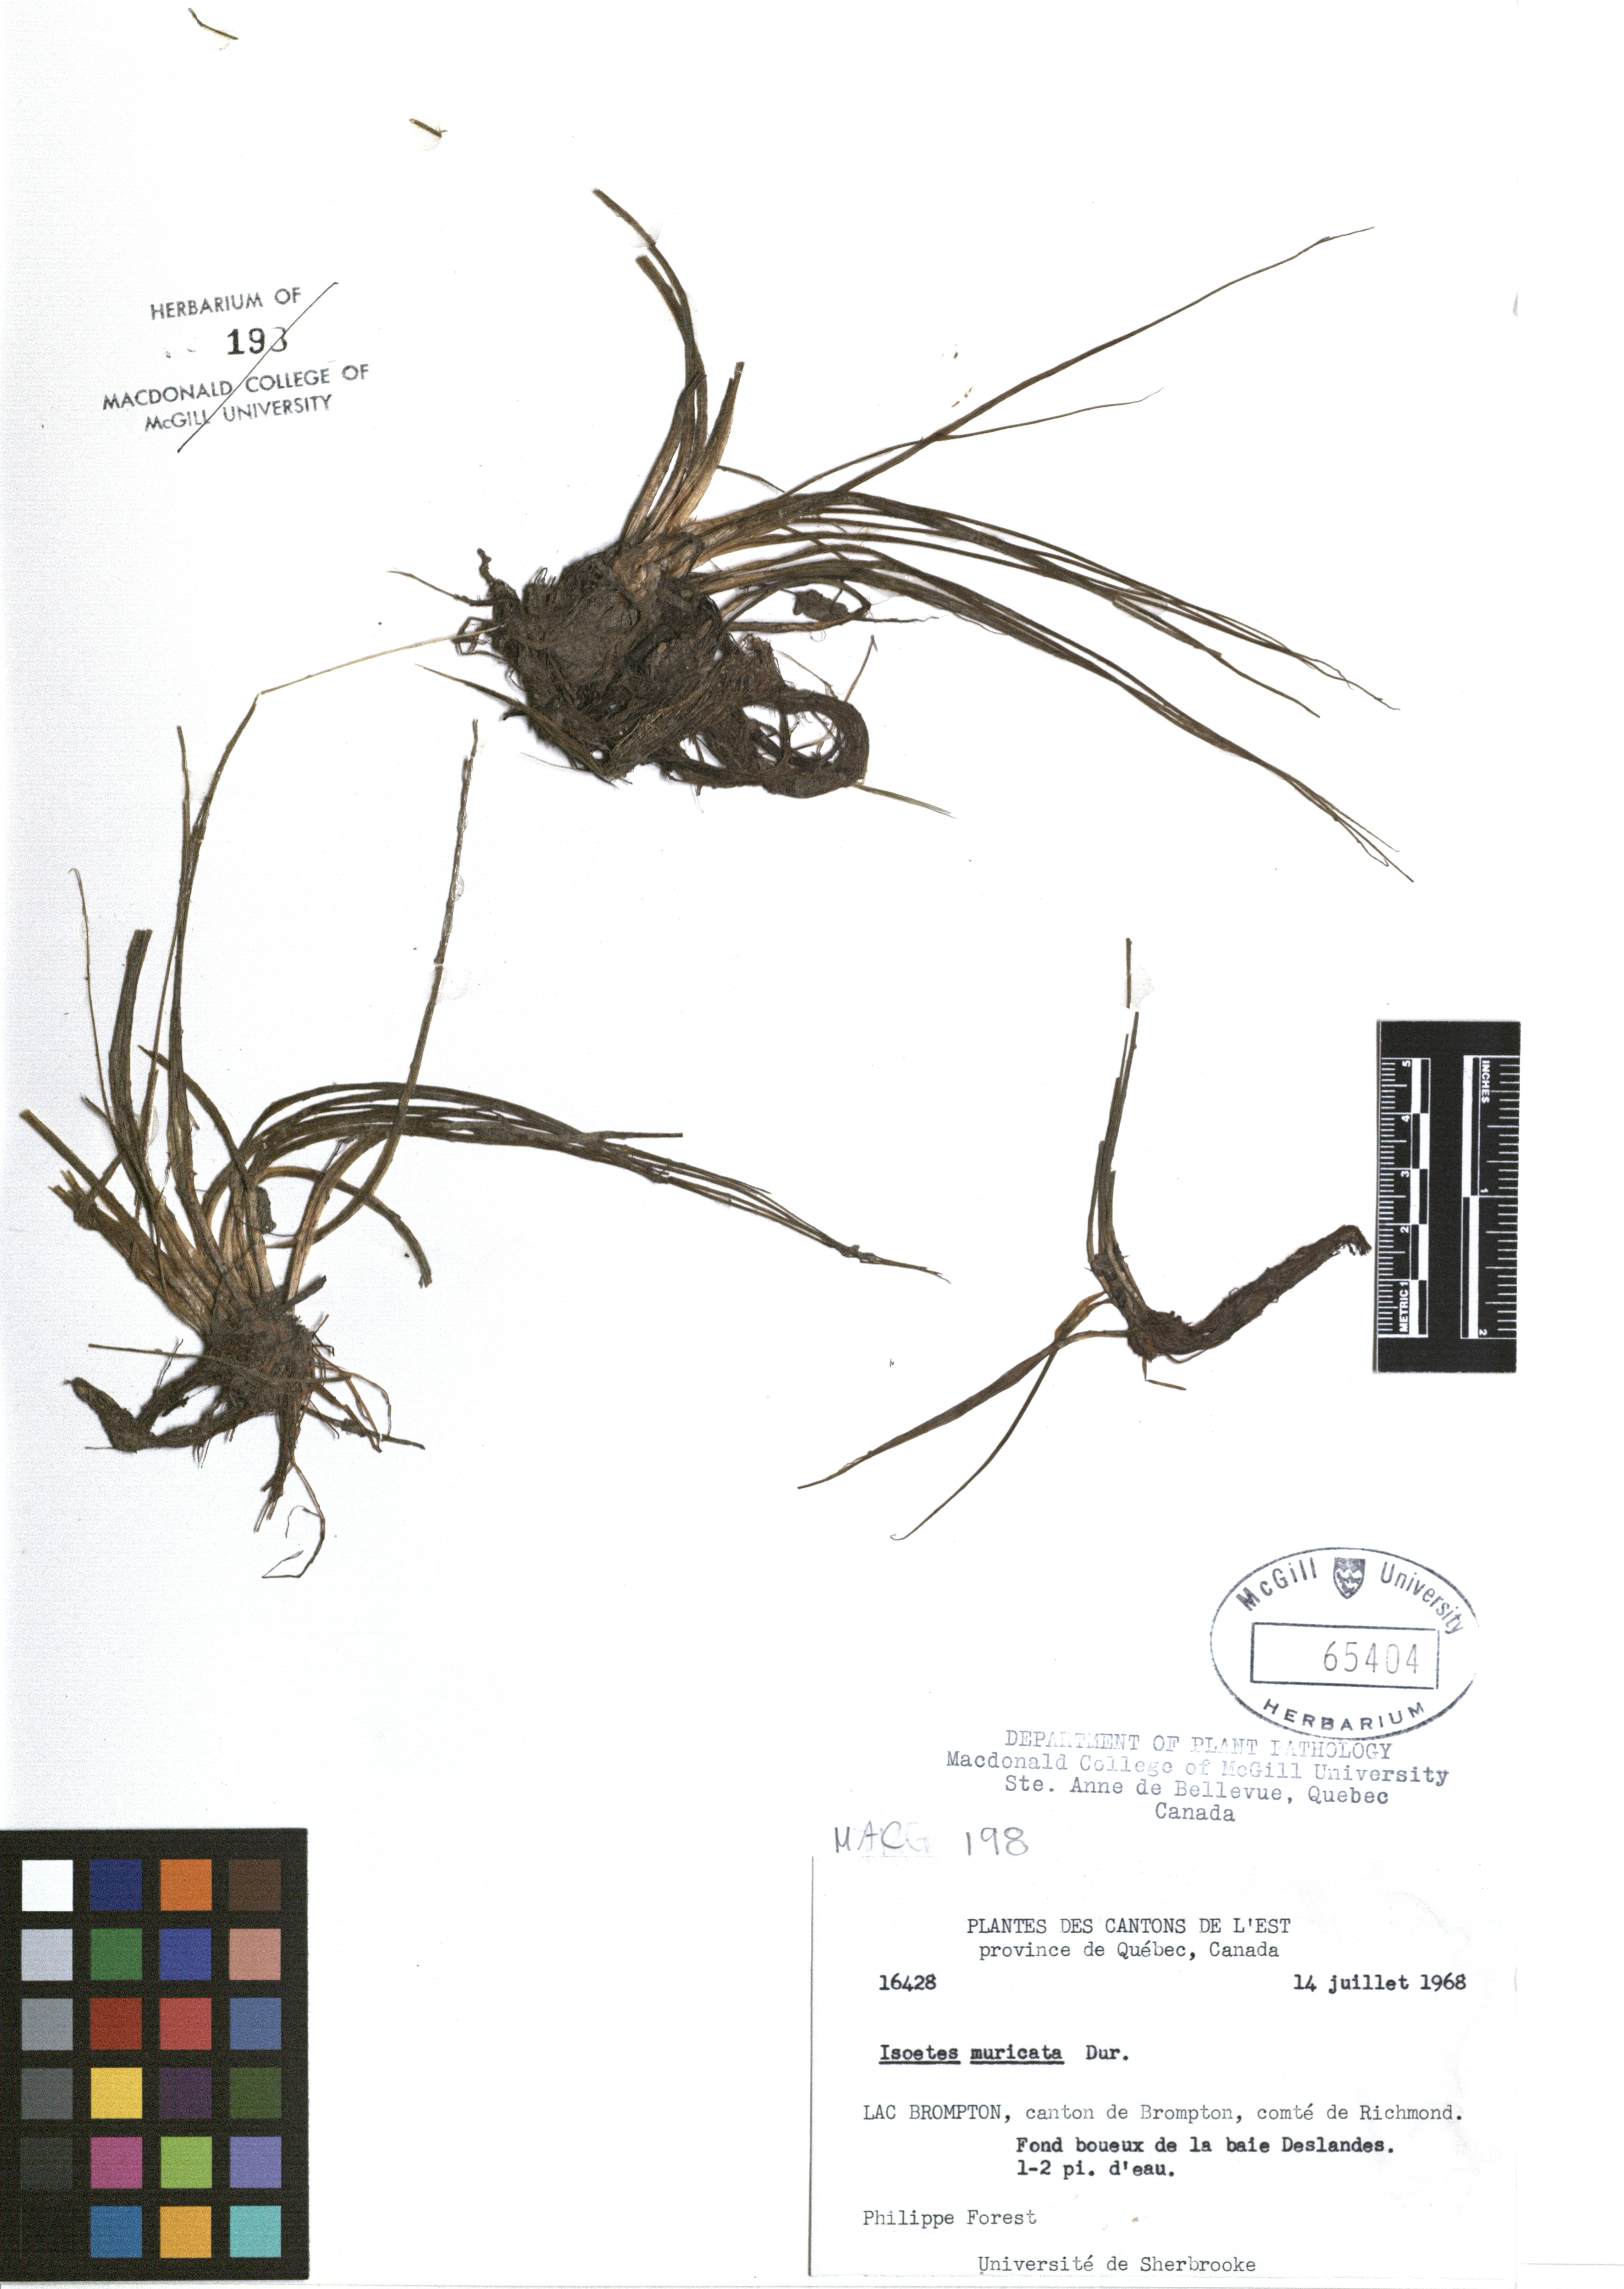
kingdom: Plantae
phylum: Tracheophyta
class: Lycopodiopsida
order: Isoetales
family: Isoetaceae
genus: Isoetes
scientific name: Isoetes echinospora
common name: Spring quillwort
